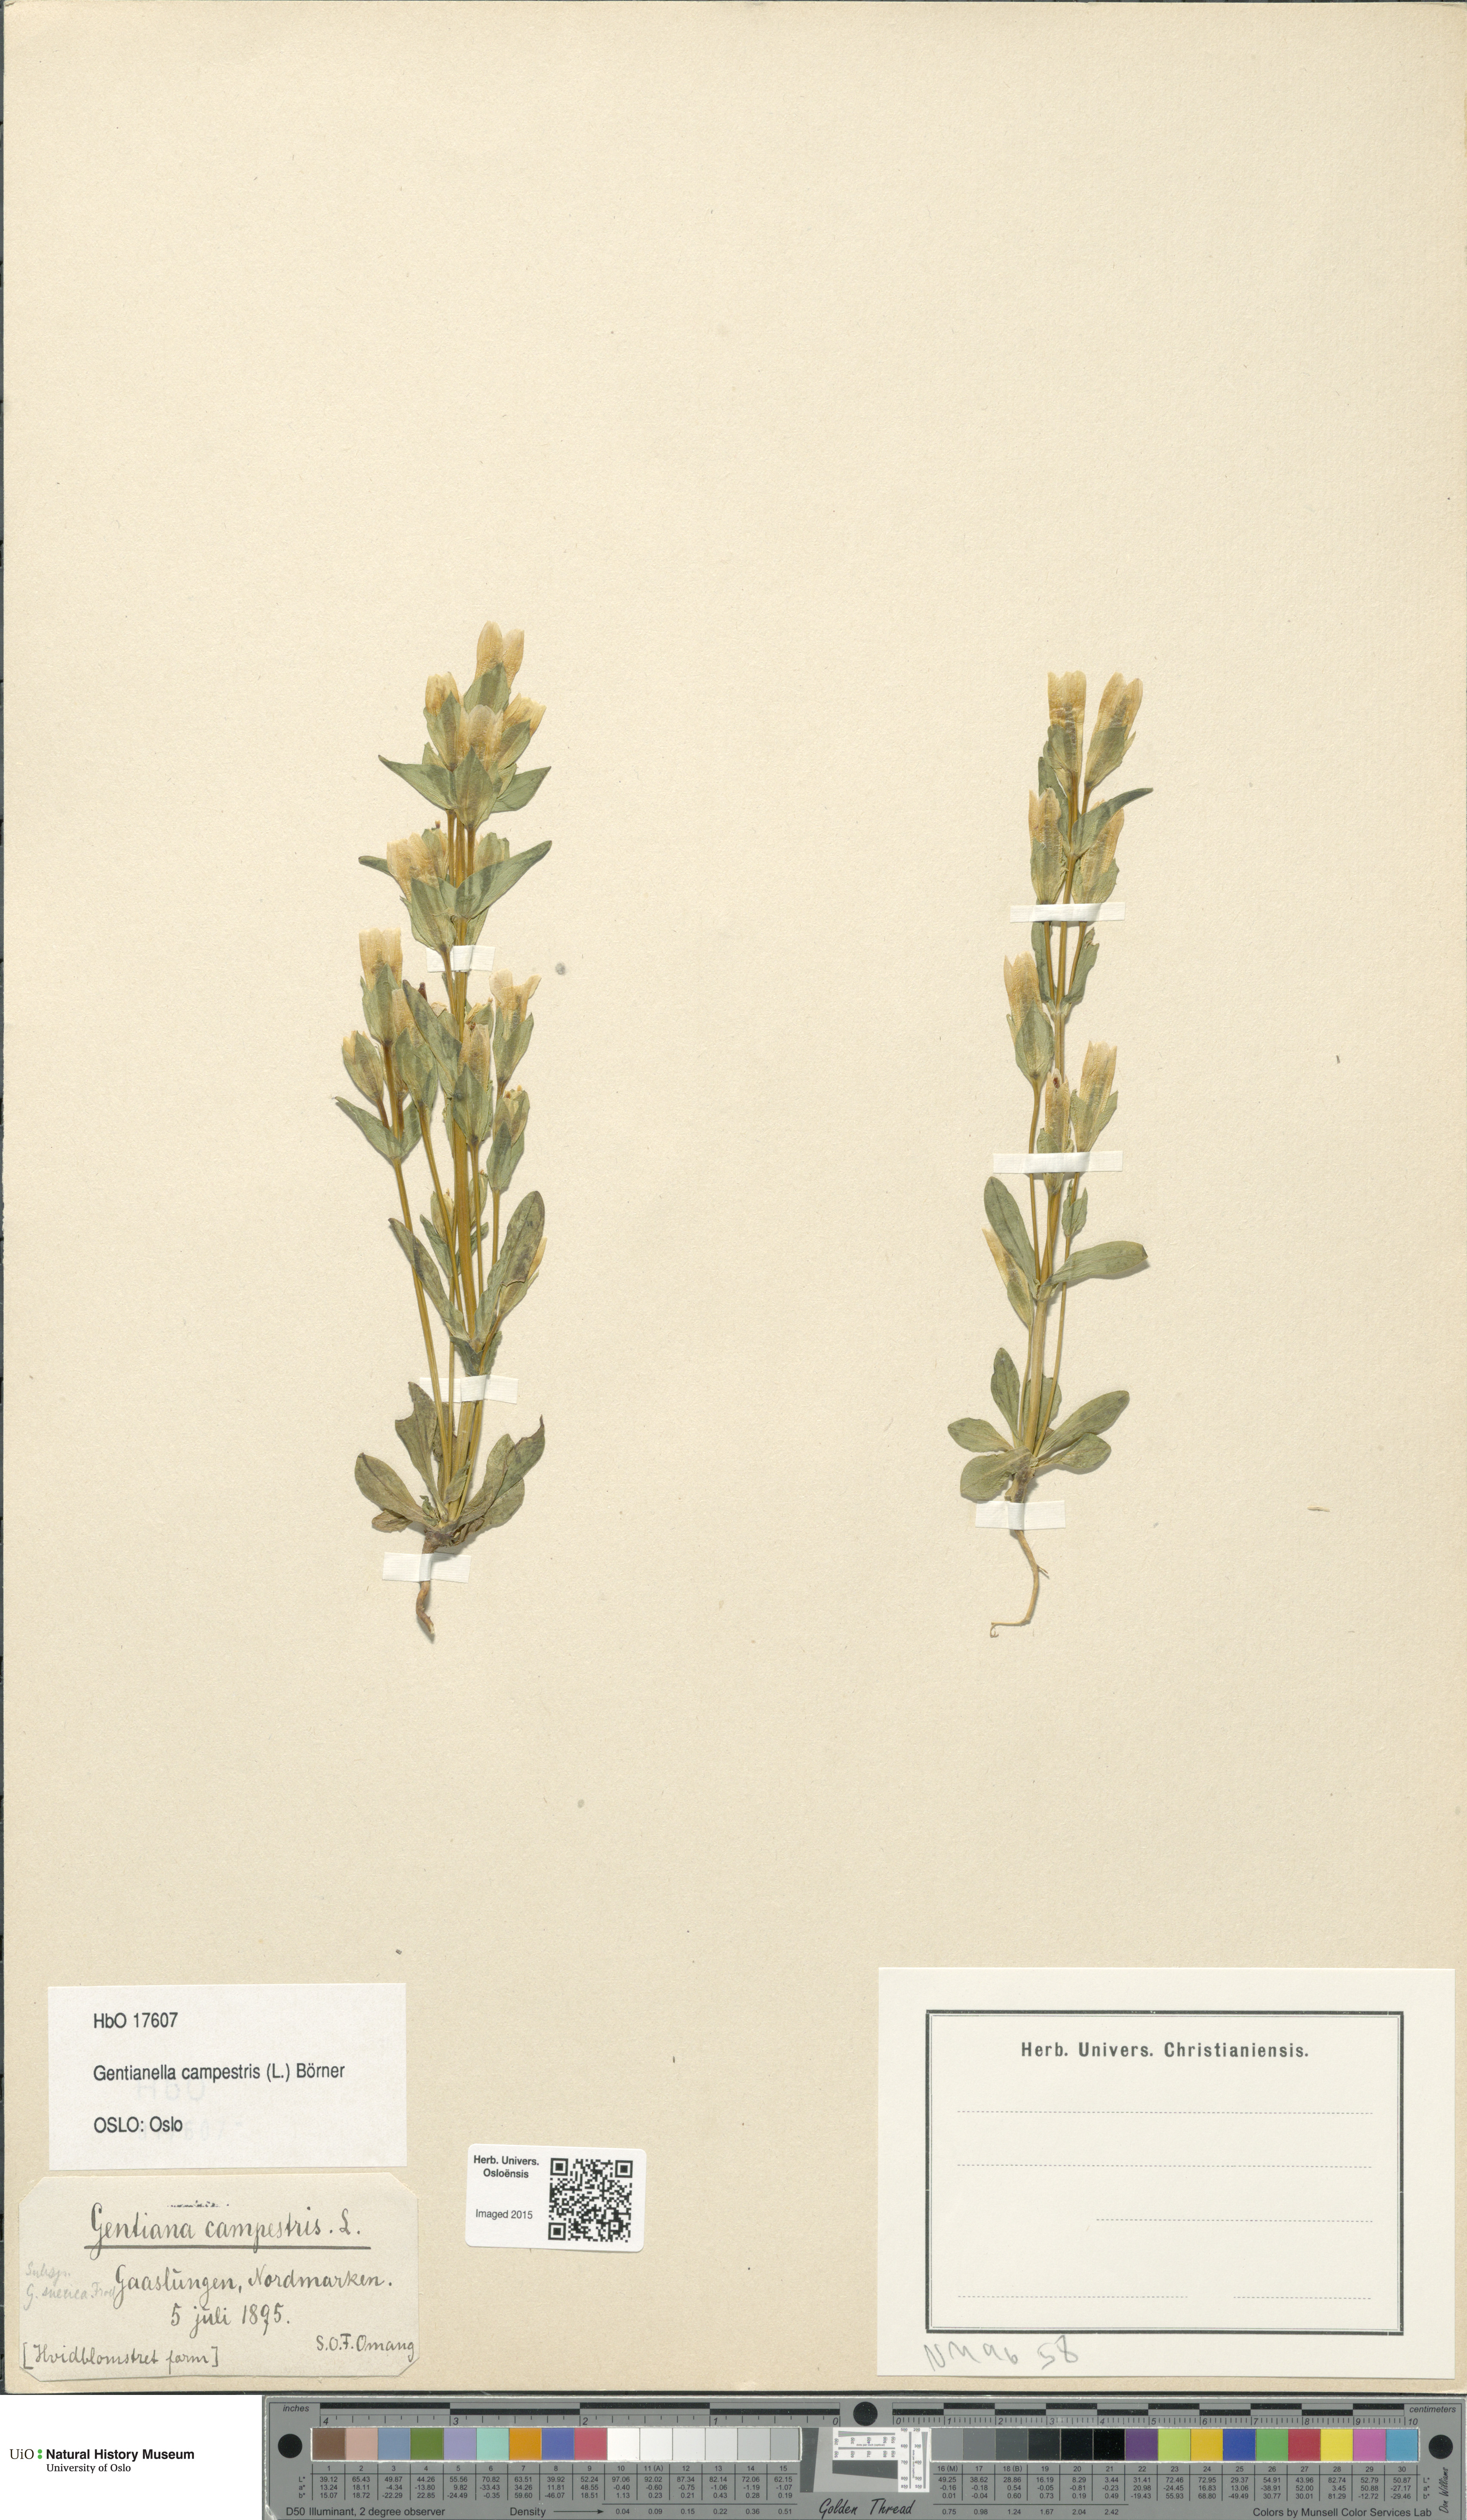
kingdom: Plantae
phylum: Tracheophyta
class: Magnoliopsida
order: Gentianales
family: Gentianaceae
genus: Gentianella
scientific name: Gentianella campestris
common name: Field gentian
